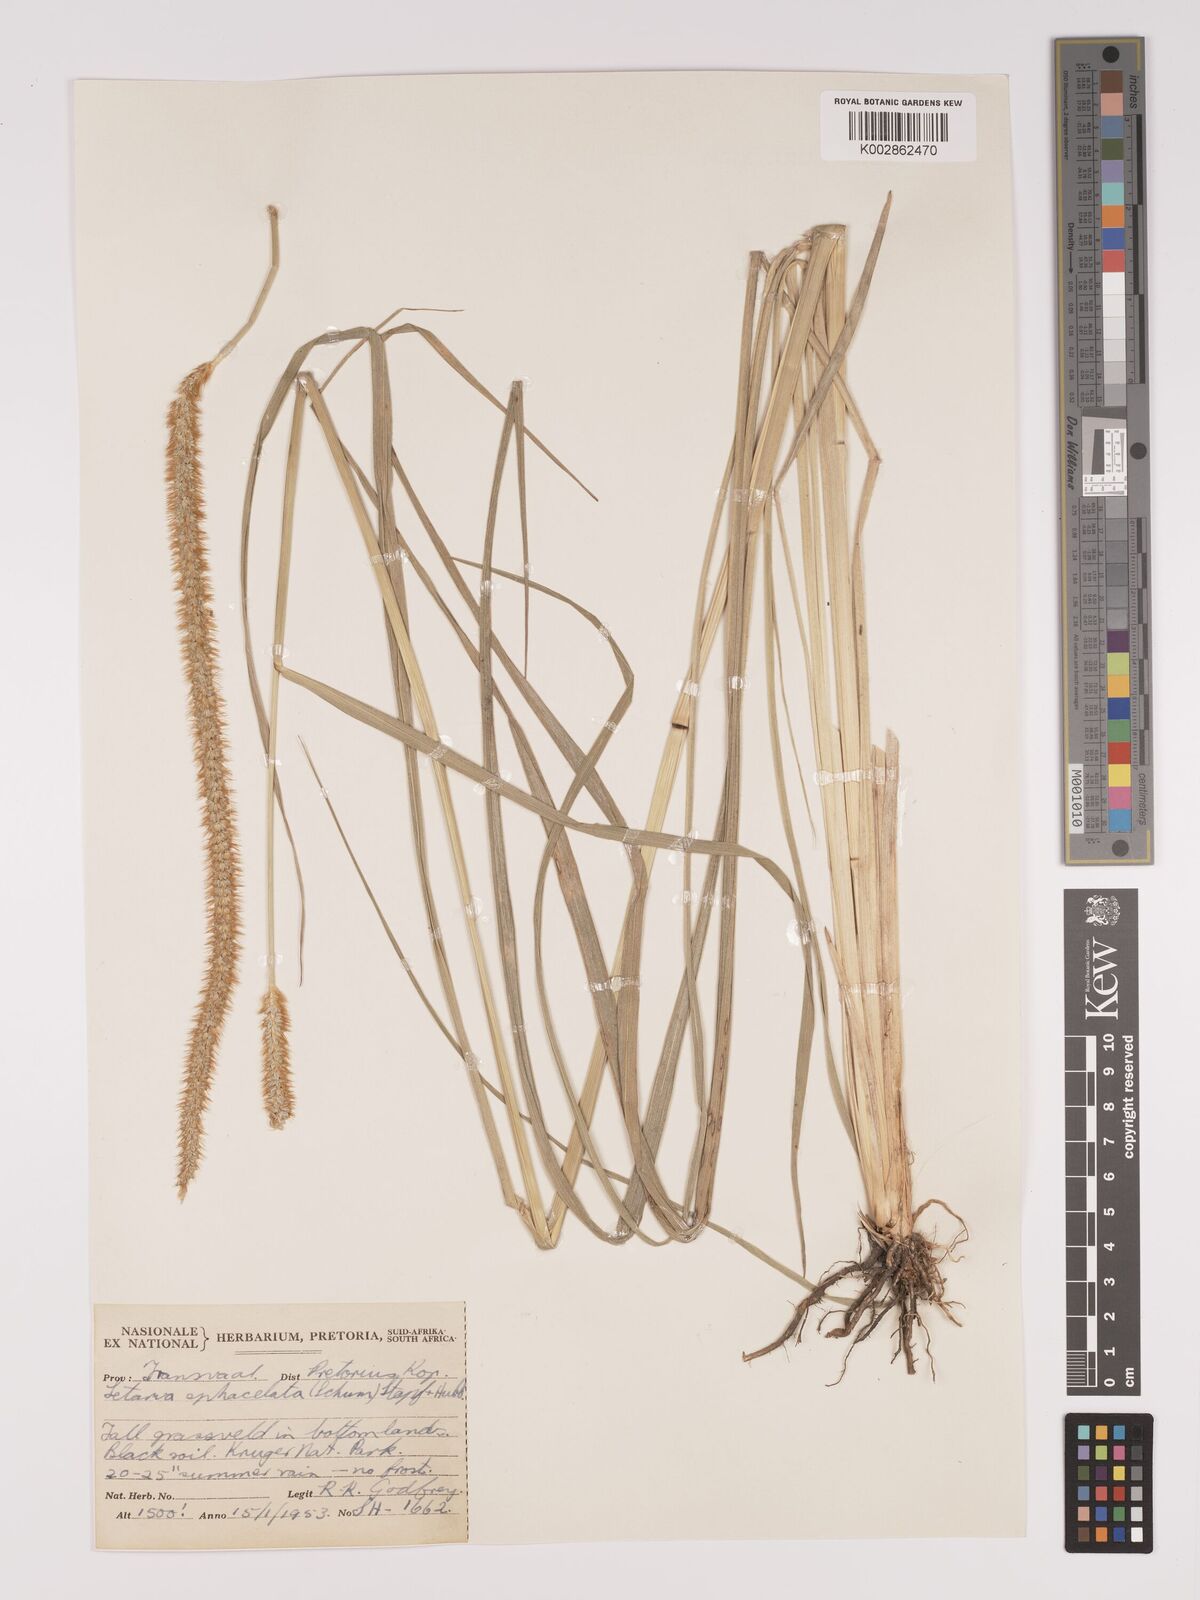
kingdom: Plantae
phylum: Tracheophyta
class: Liliopsida
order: Poales
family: Poaceae
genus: Setaria
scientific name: Setaria sphacelata
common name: African bristlegrass
